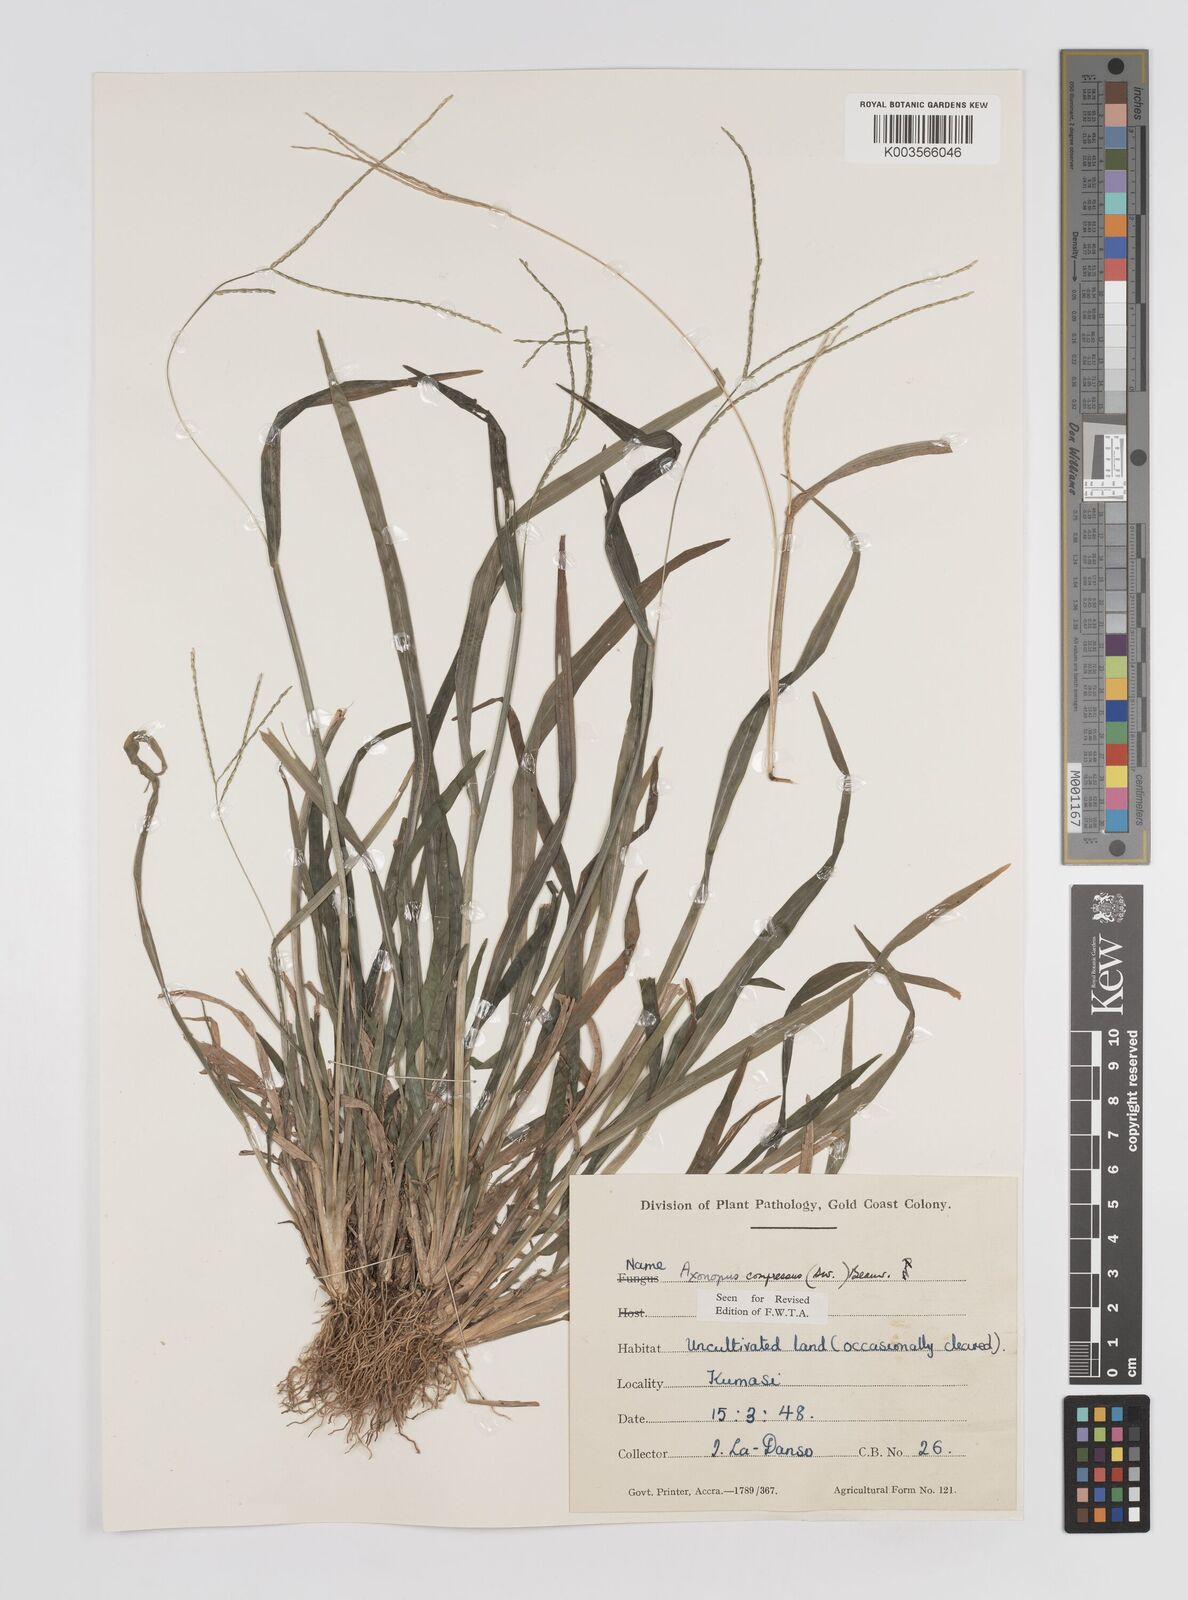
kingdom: Plantae
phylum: Tracheophyta
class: Liliopsida
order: Poales
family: Poaceae
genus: Axonopus
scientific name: Axonopus compressus
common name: American carpet grass
